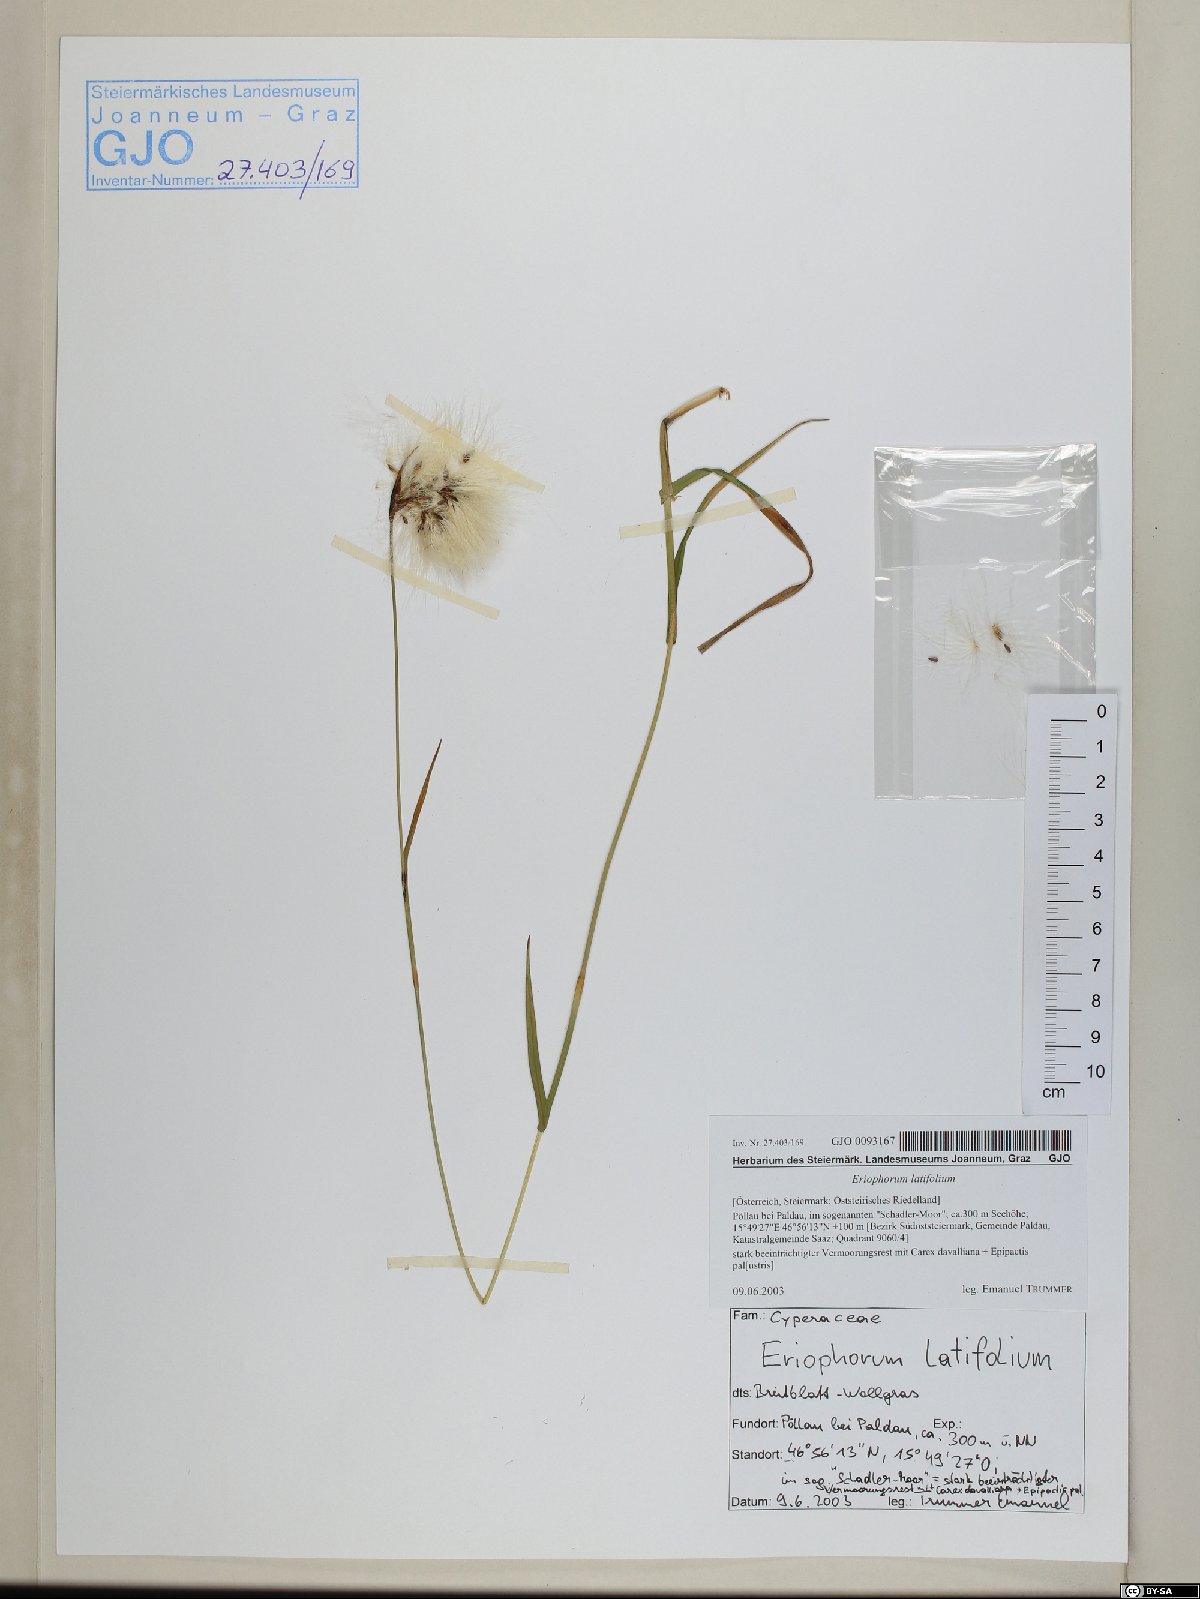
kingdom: Plantae
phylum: Tracheophyta
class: Liliopsida
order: Poales
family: Cyperaceae
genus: Eriophorum
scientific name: Eriophorum latifolium
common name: Broad-leaved cottongrass
